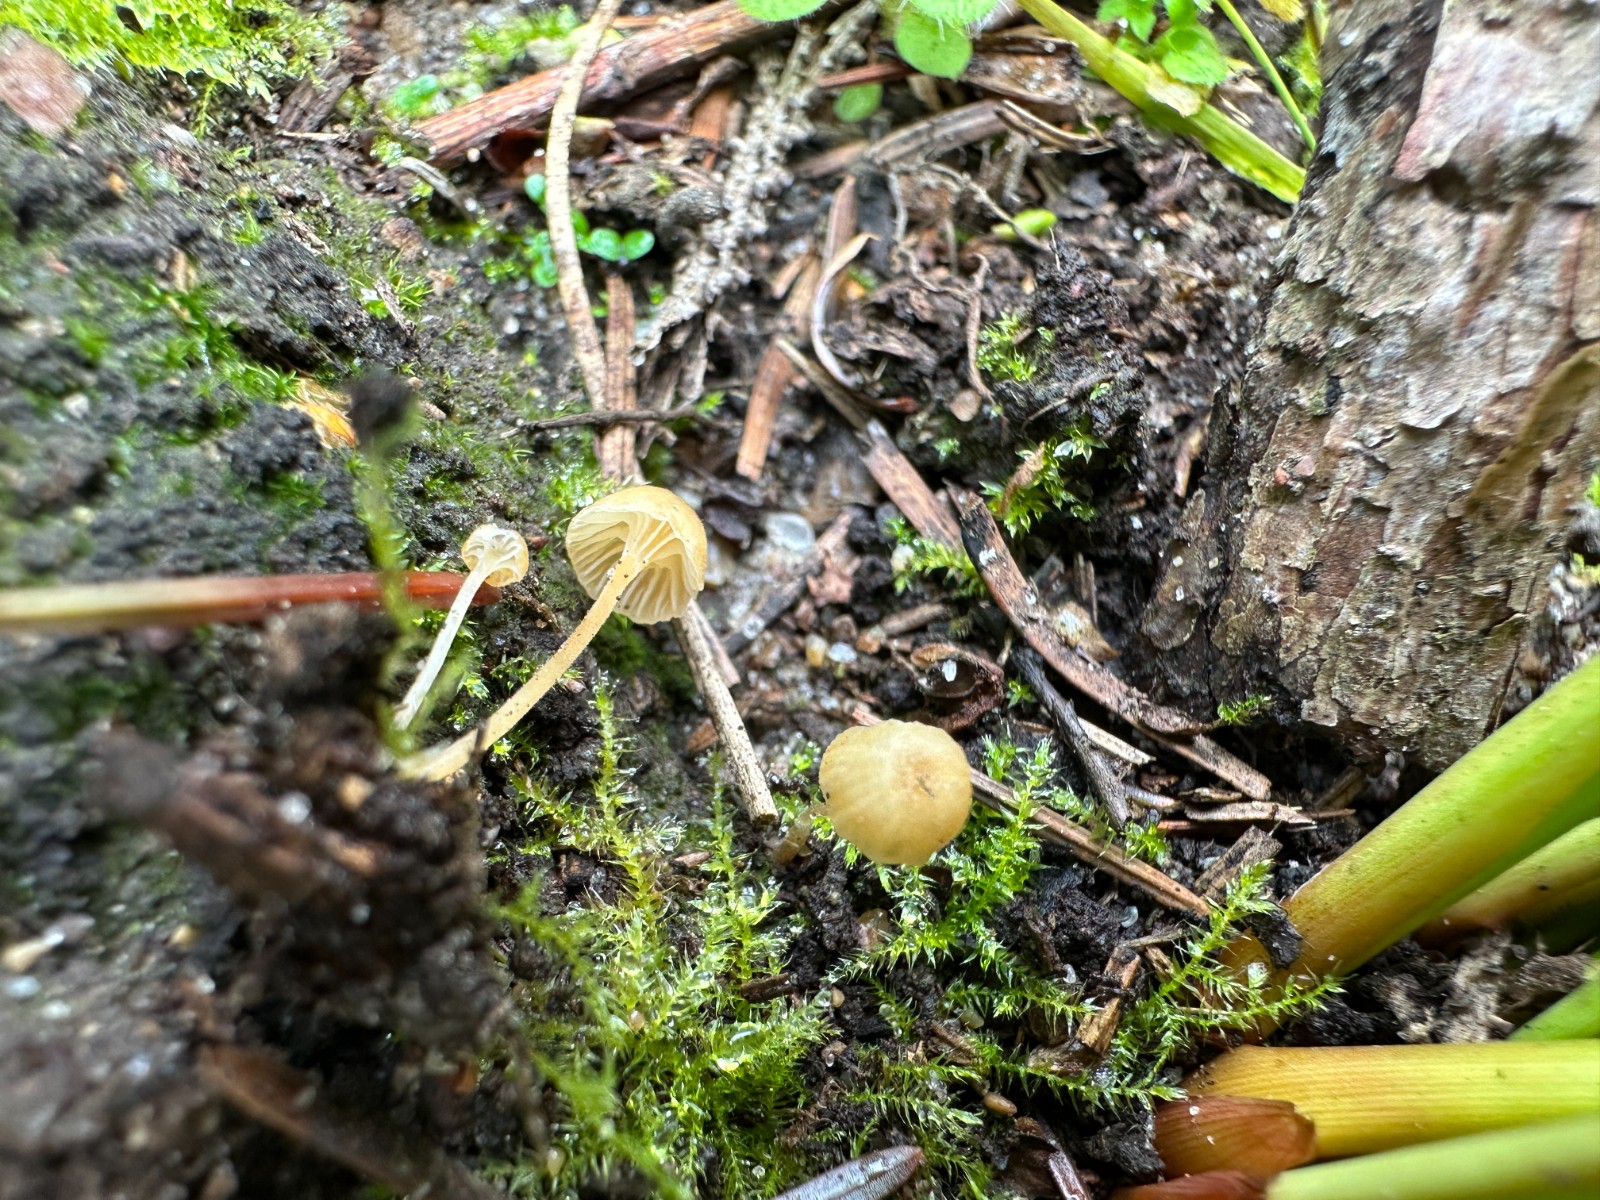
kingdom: Fungi
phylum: Basidiomycota
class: Agaricomycetes
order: Hymenochaetales
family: Rickenellaceae
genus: Rickenella
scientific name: Rickenella fibula
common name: orange mosnavlehat
